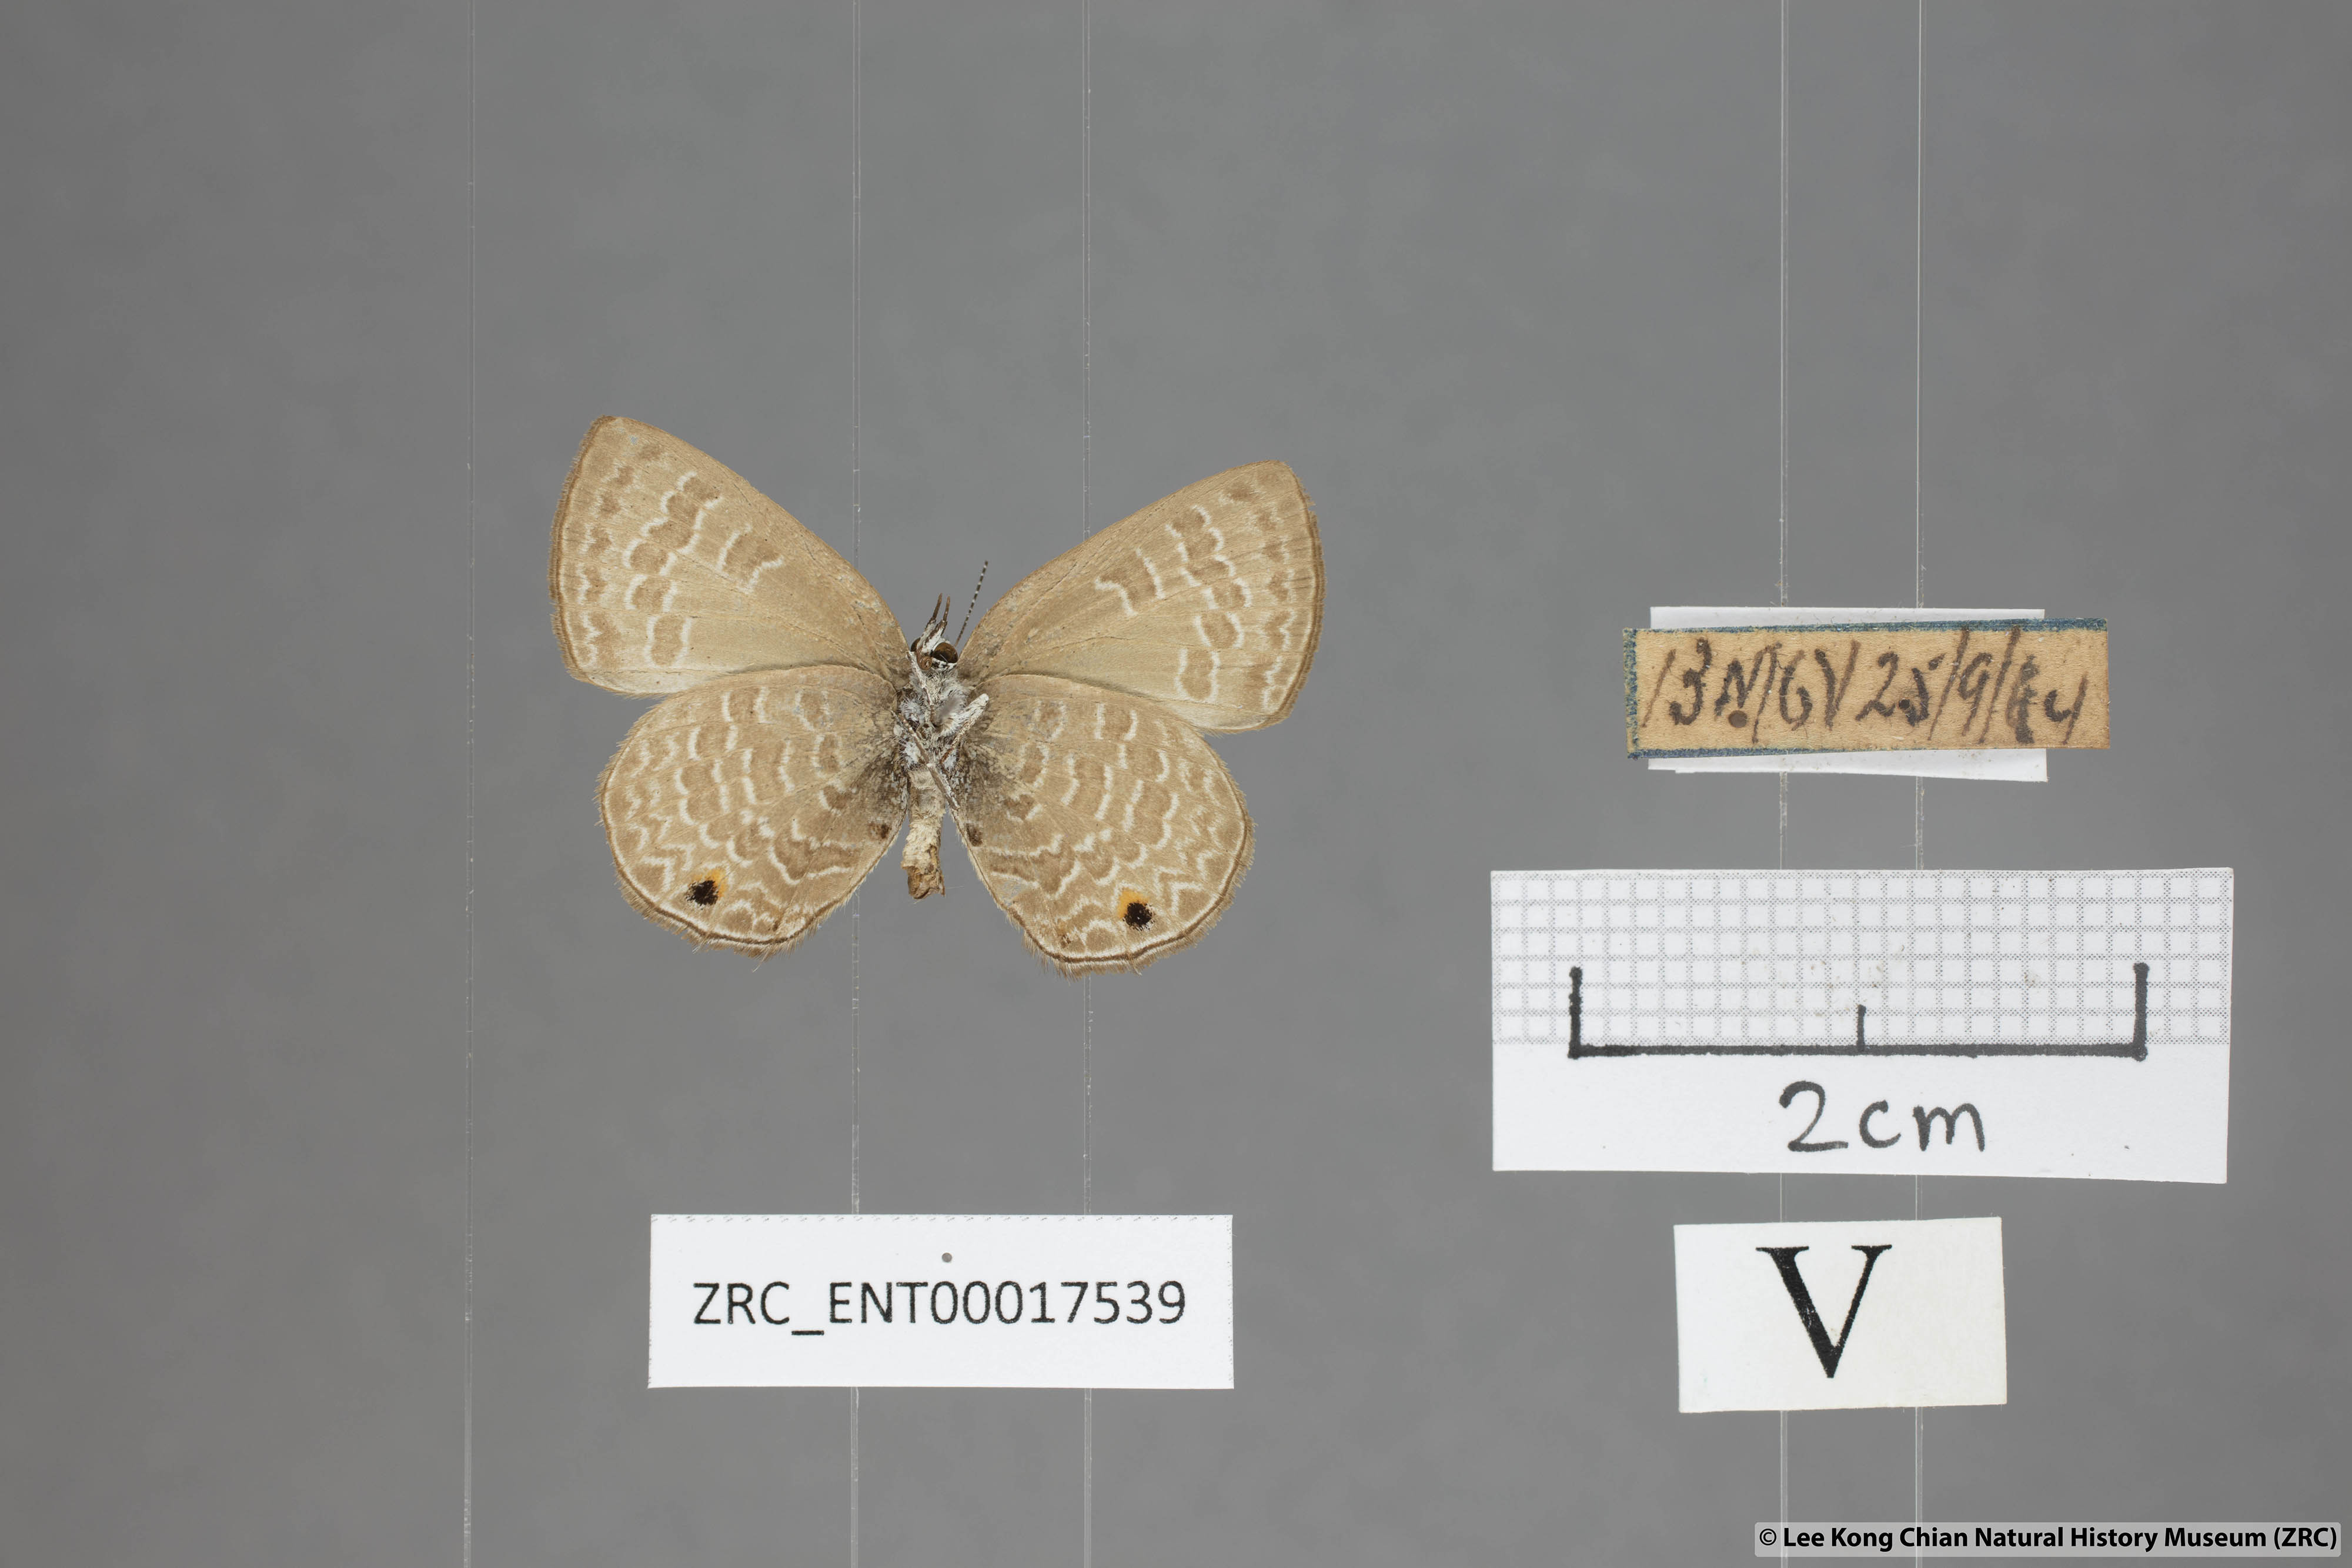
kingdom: Animalia
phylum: Arthropoda
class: Insecta
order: Lepidoptera
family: Lycaenidae
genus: Anthene
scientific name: Anthene emolus
